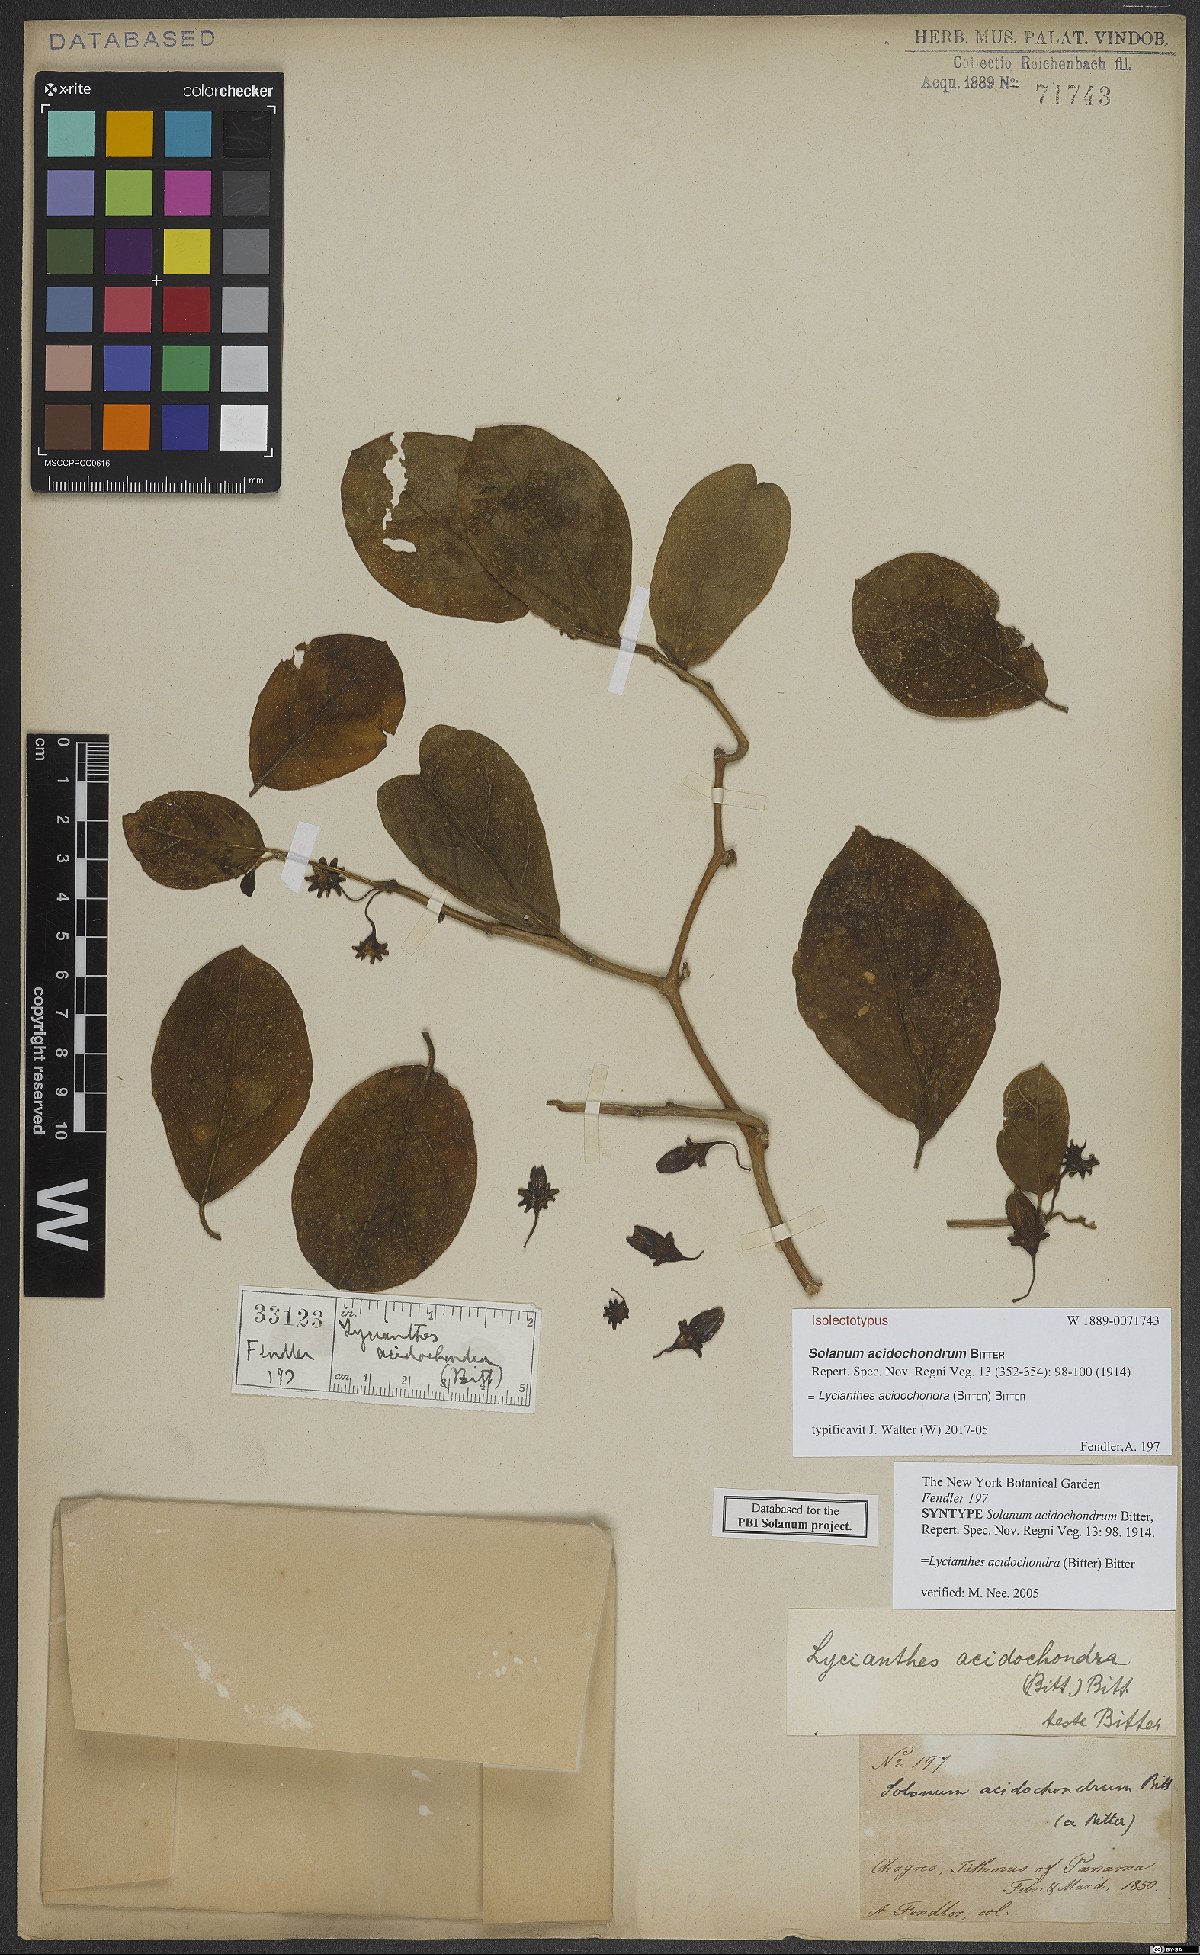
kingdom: Plantae
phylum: Tracheophyta
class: Magnoliopsida
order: Solanales
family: Solanaceae
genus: Lycianthes
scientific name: Lycianthes acidochondra
